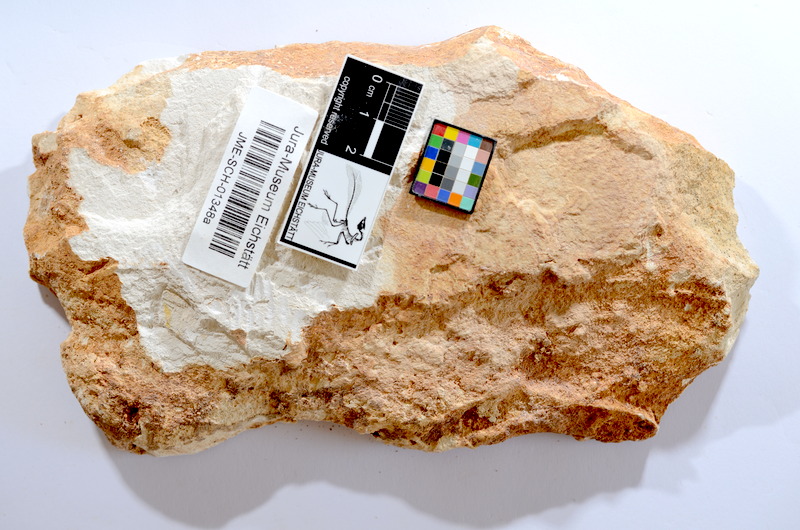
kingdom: Animalia
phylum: Chordata
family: Ascalaboidae
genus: Tharsis
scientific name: Tharsis dubius
